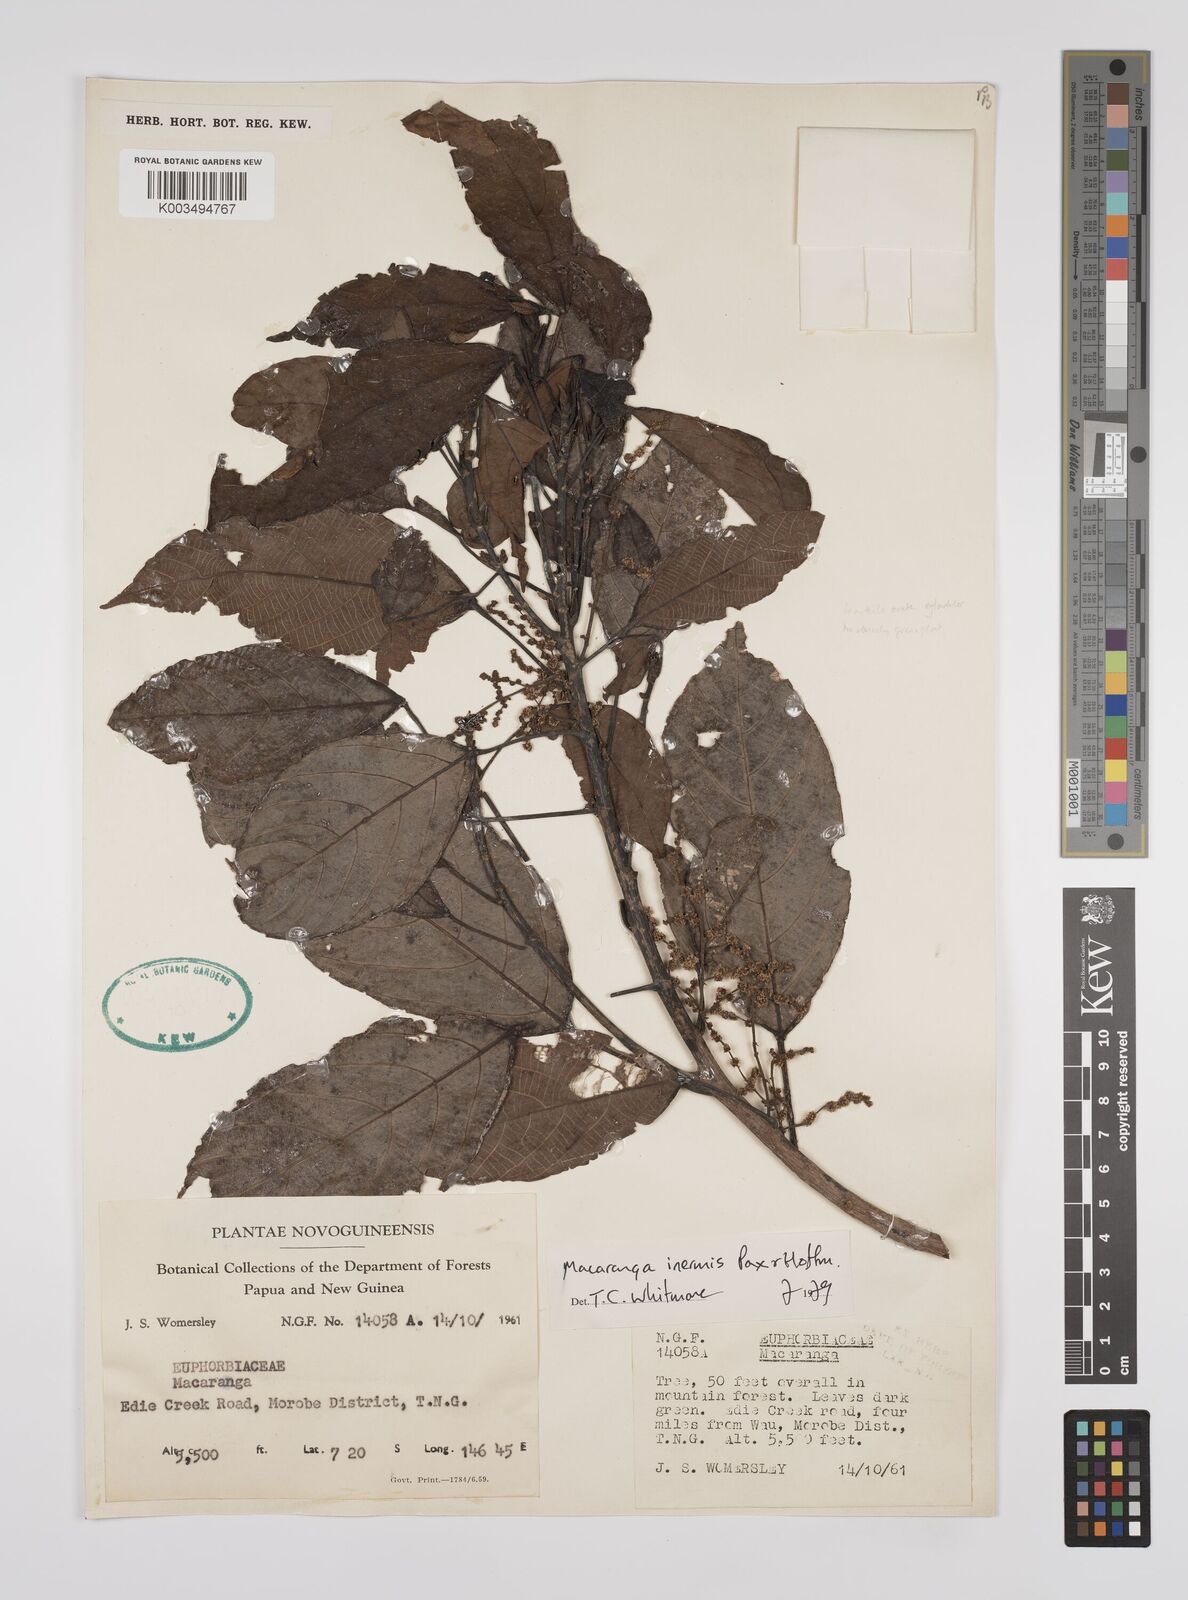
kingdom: Plantae
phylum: Tracheophyta
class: Magnoliopsida
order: Malpighiales
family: Euphorbiaceae
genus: Macaranga
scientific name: Macaranga inermis
